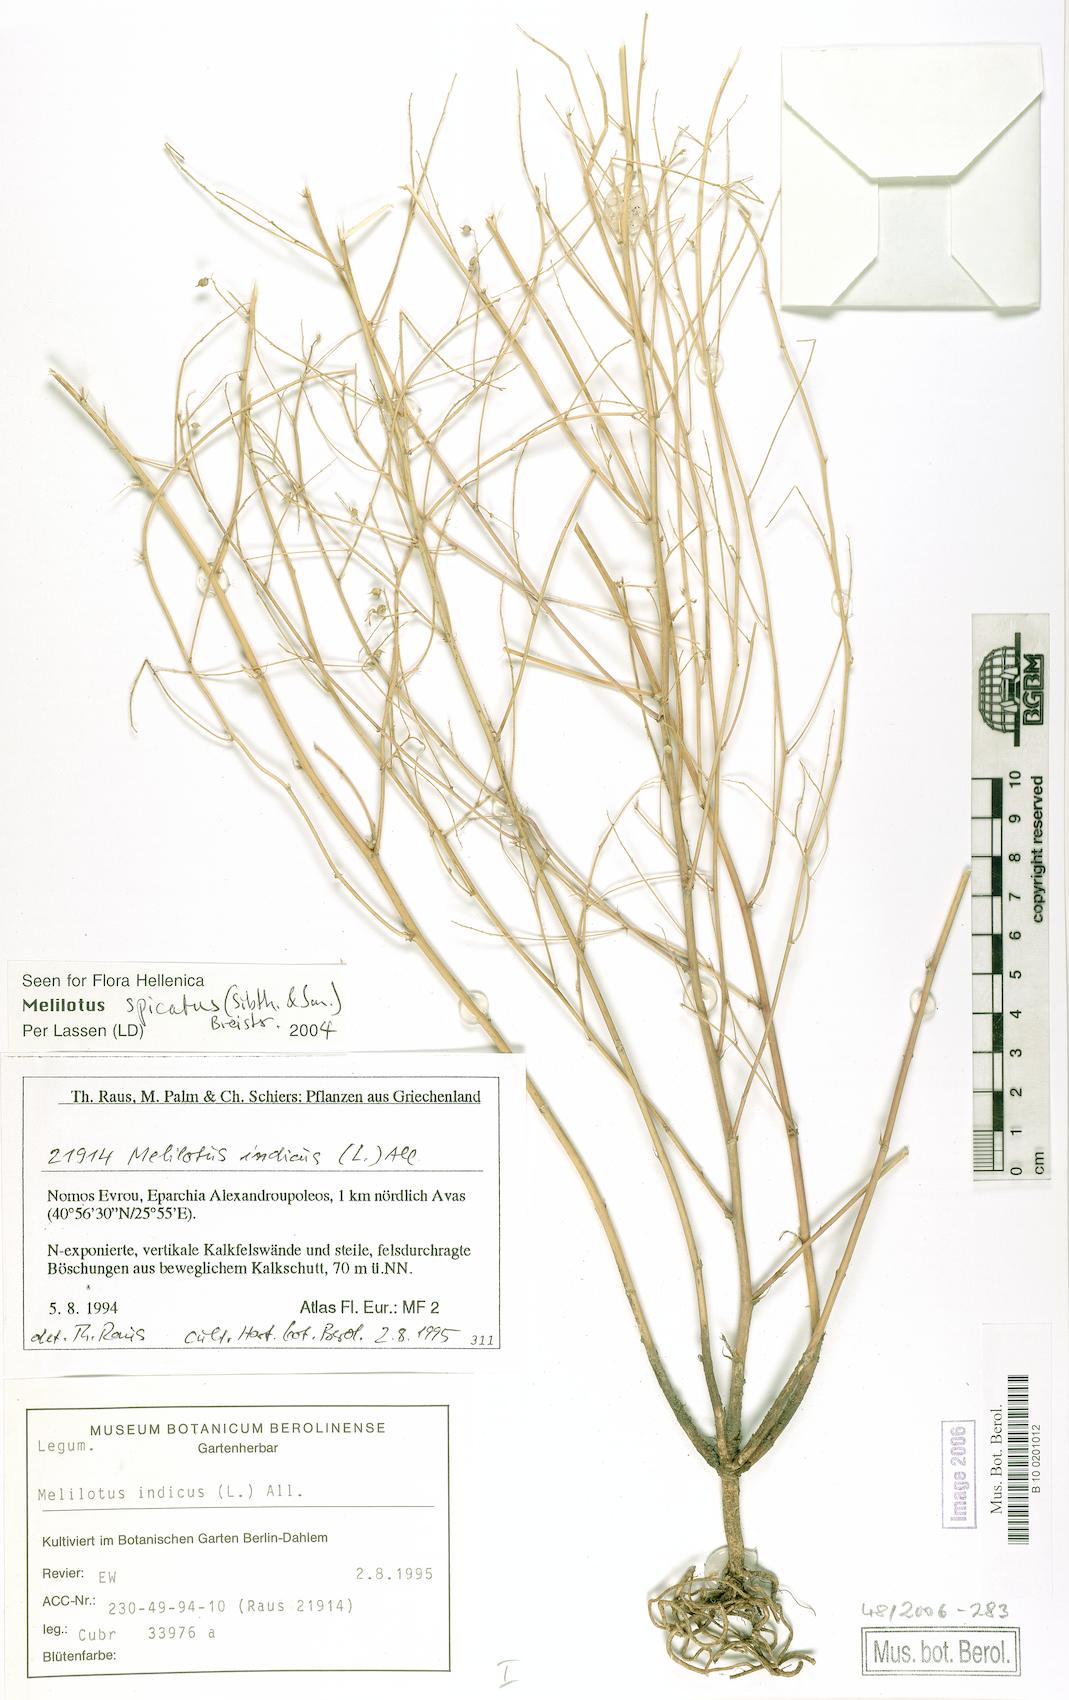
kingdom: Plantae
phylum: Tracheophyta
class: Magnoliopsida
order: Fabales
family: Fabaceae
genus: Melilotus
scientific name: Melilotus neapolitanus
